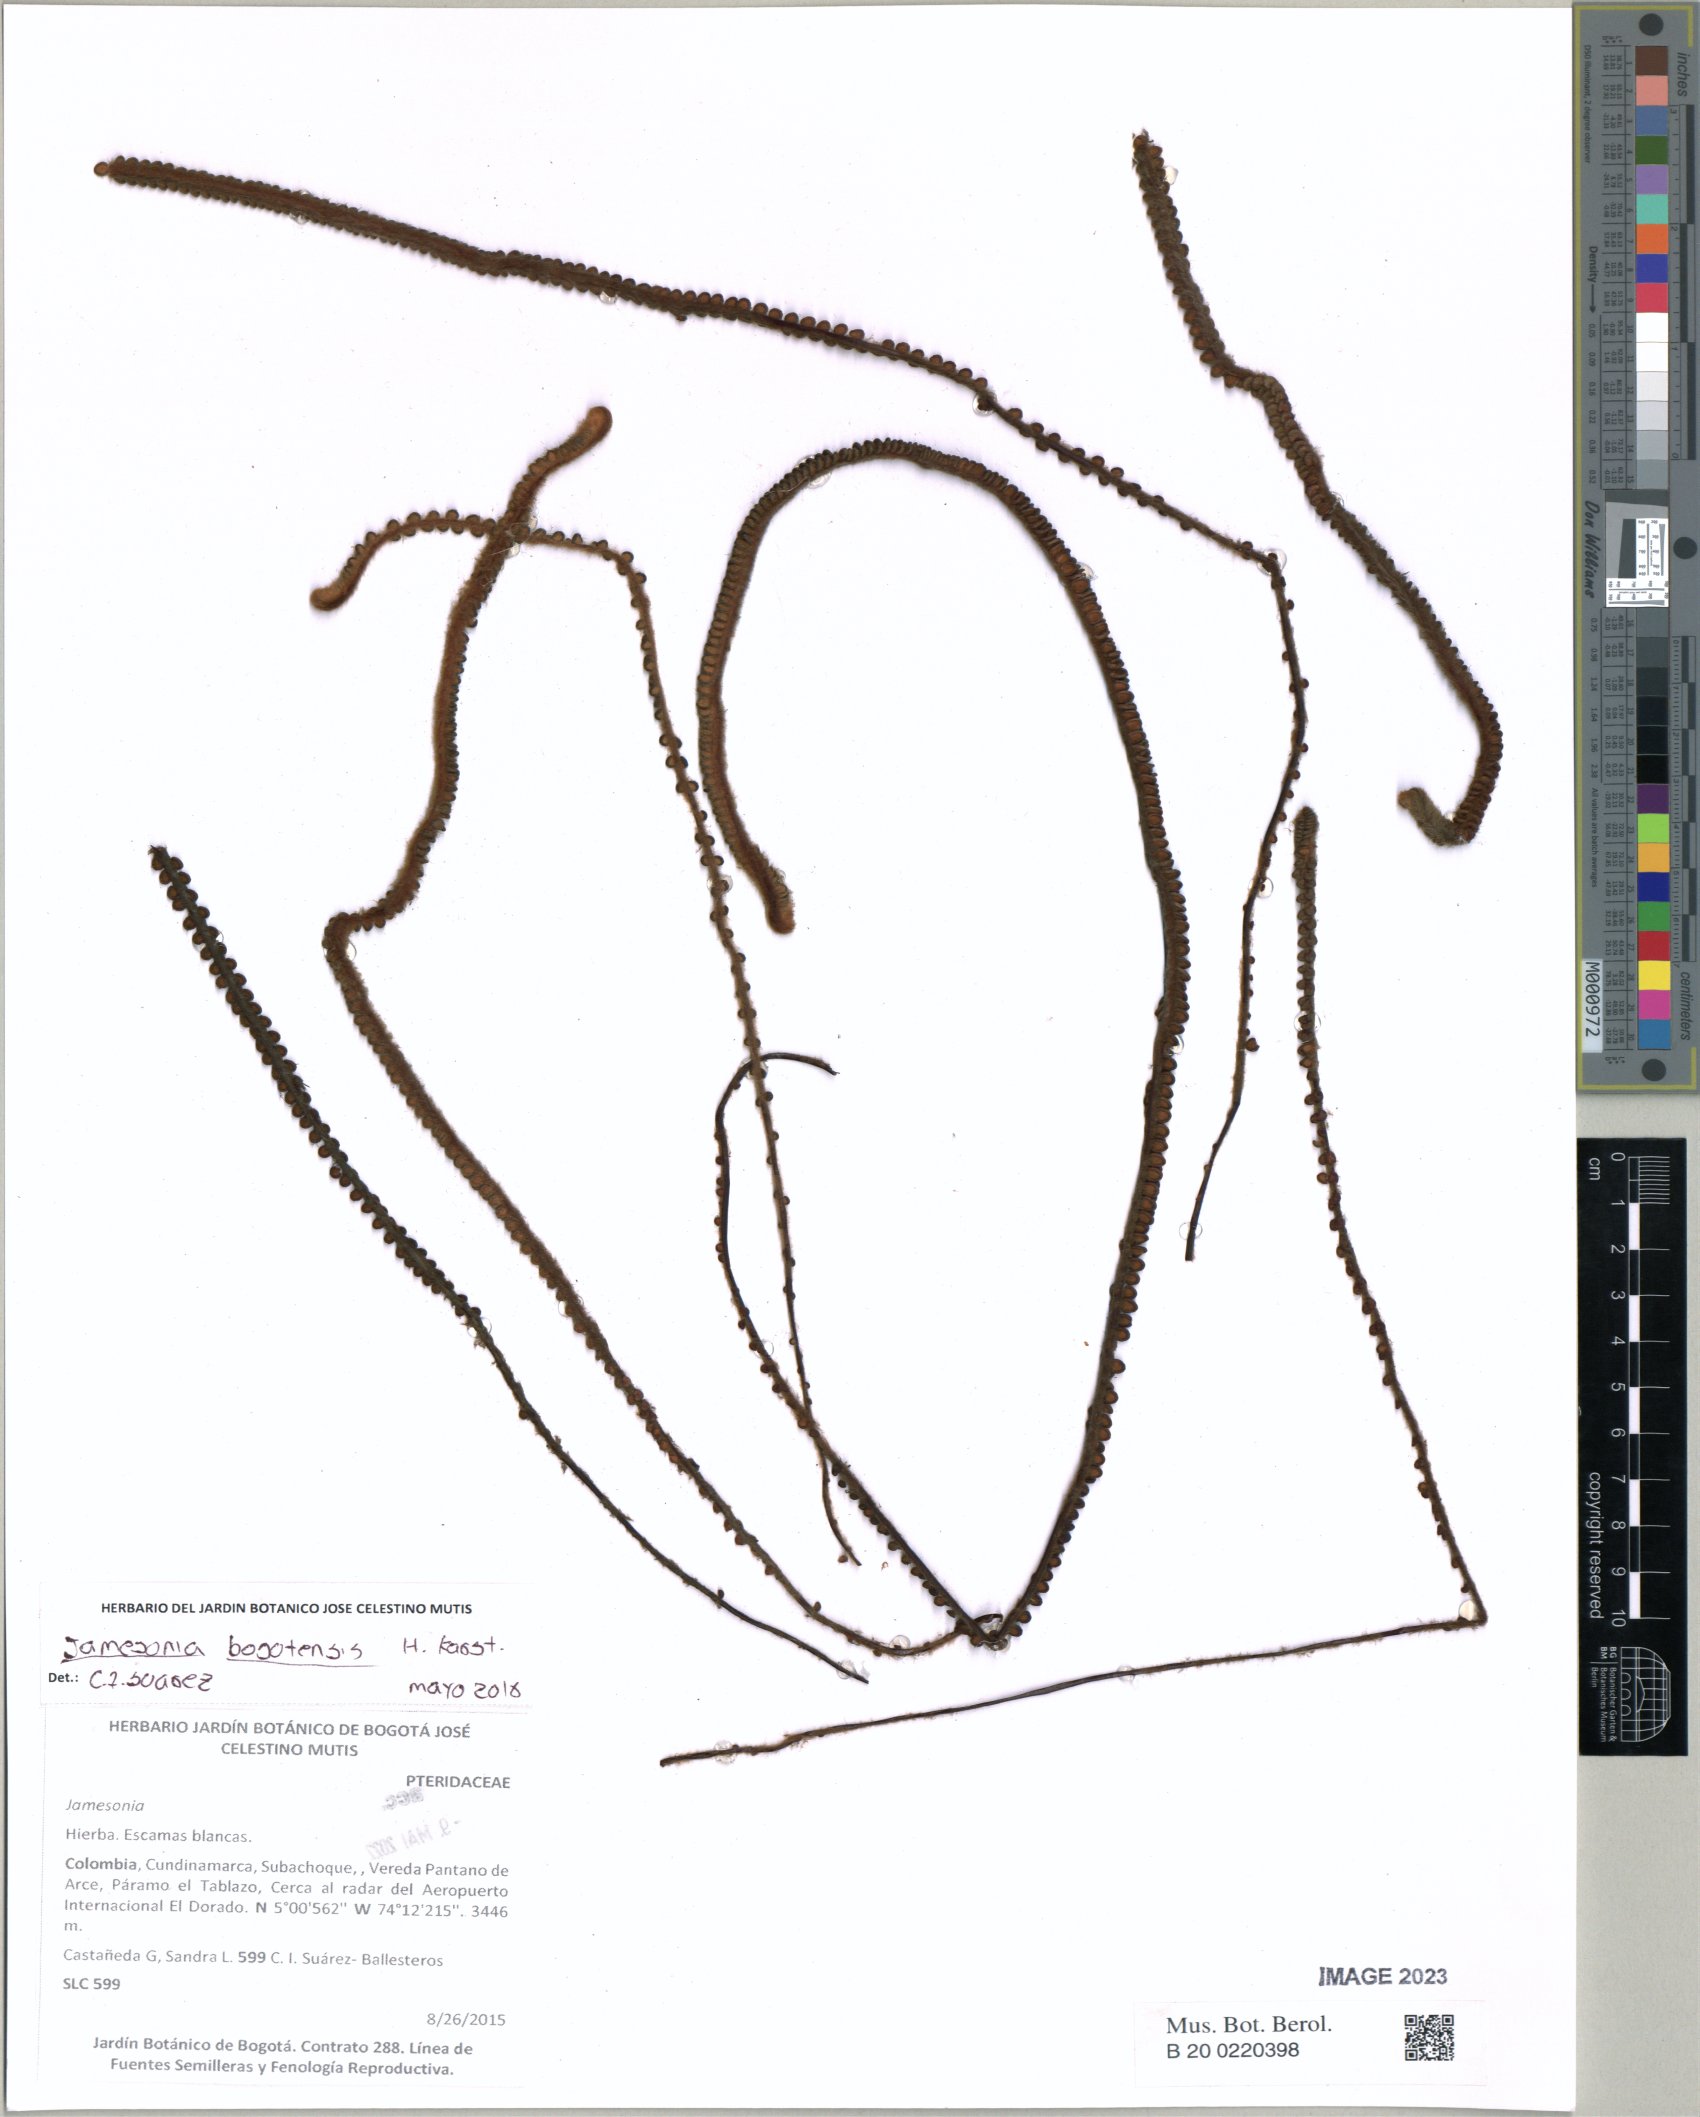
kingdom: Plantae
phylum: Tracheophyta
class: Polypodiopsida
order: Polypodiales
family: Pteridaceae
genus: Jamesonia
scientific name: Jamesonia bogotensis
